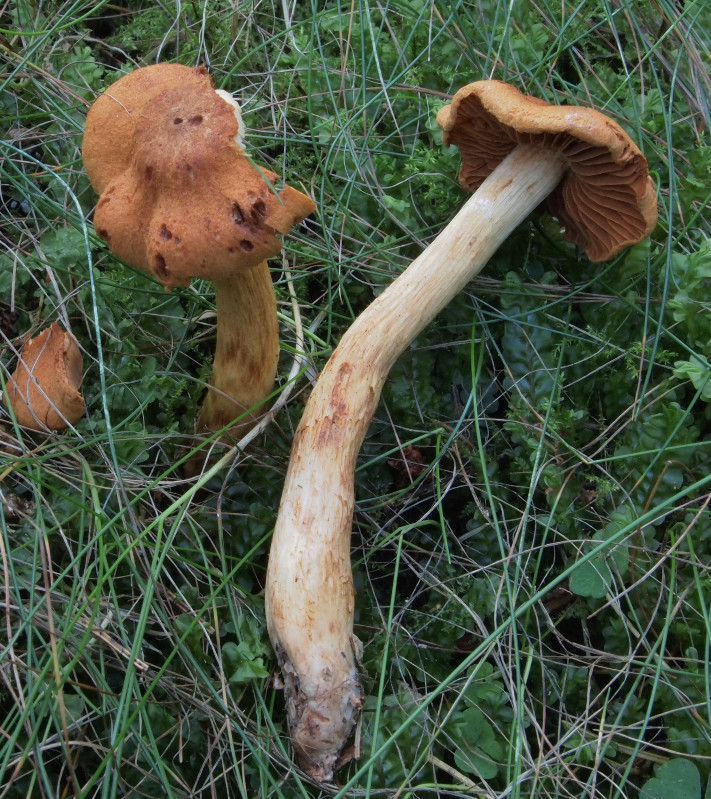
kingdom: Fungi
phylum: Basidiomycota
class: Agaricomycetes
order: Agaricales
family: Cortinariaceae
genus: Cortinarius
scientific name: Cortinarius rubellus
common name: puklet gift-slørhat
